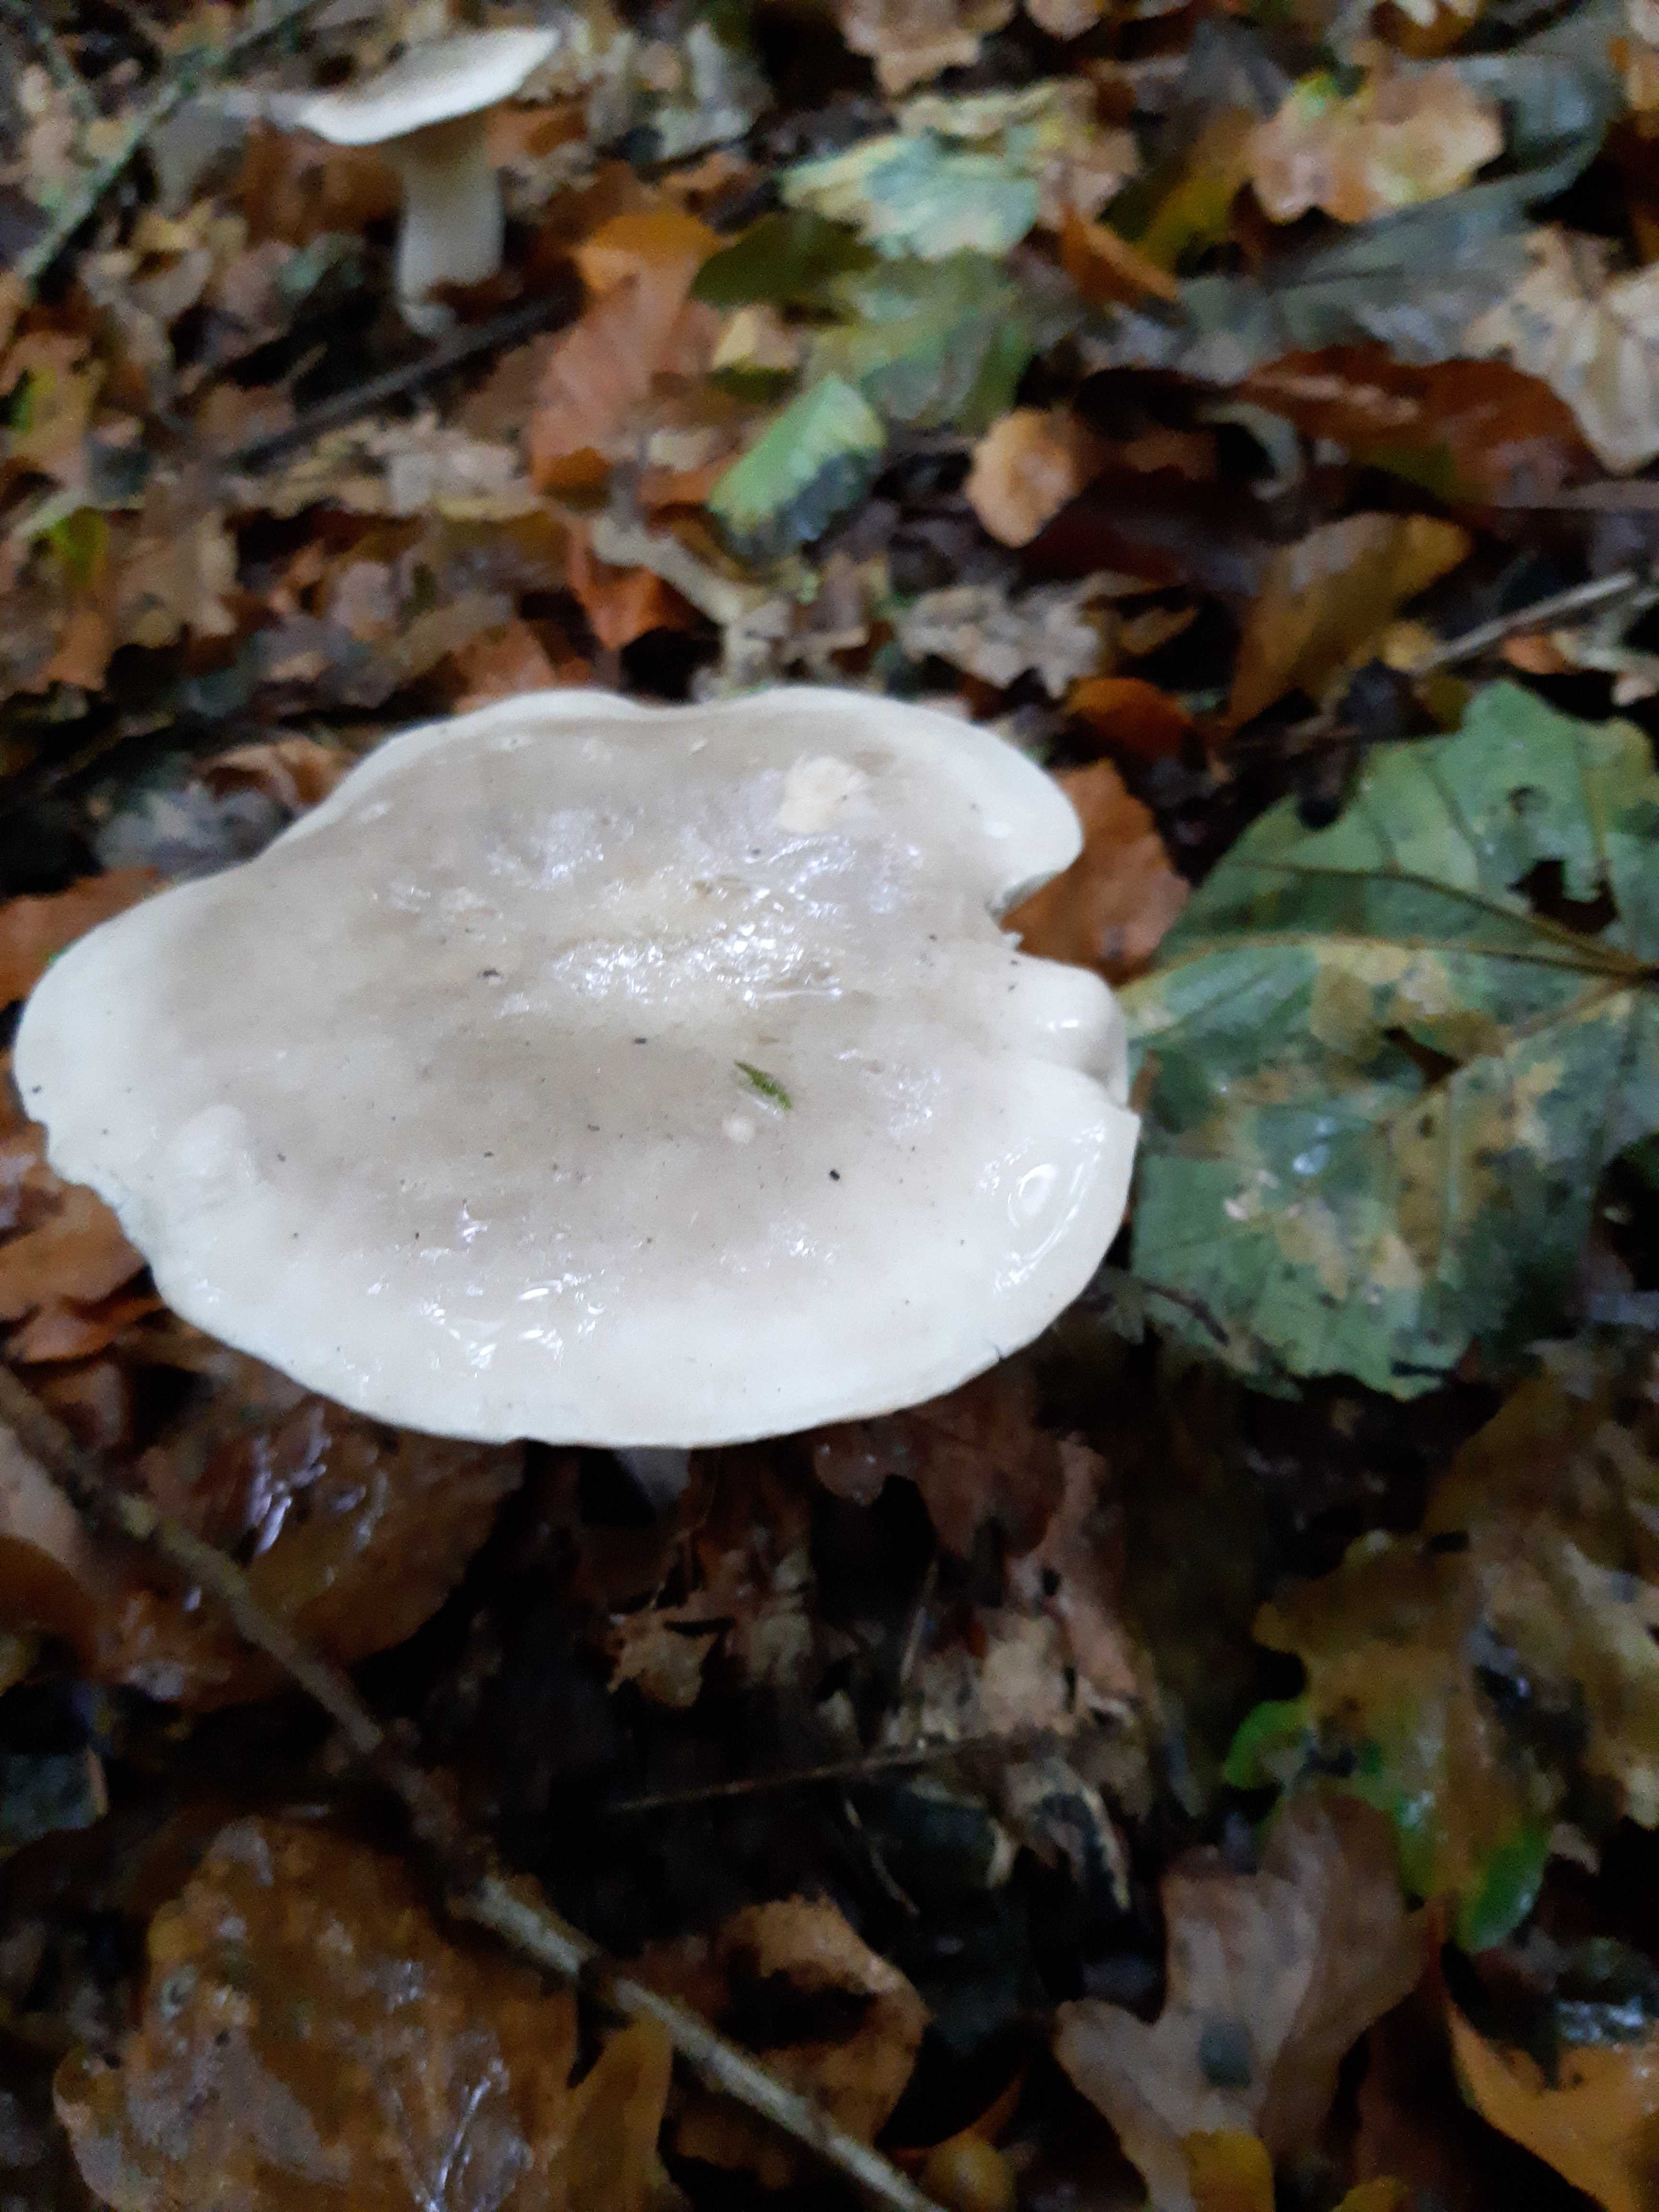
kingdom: Fungi
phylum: Basidiomycota
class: Agaricomycetes
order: Agaricales
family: Tricholomataceae
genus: Clitocybe
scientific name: Clitocybe nebularis
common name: tåge-tragthat
